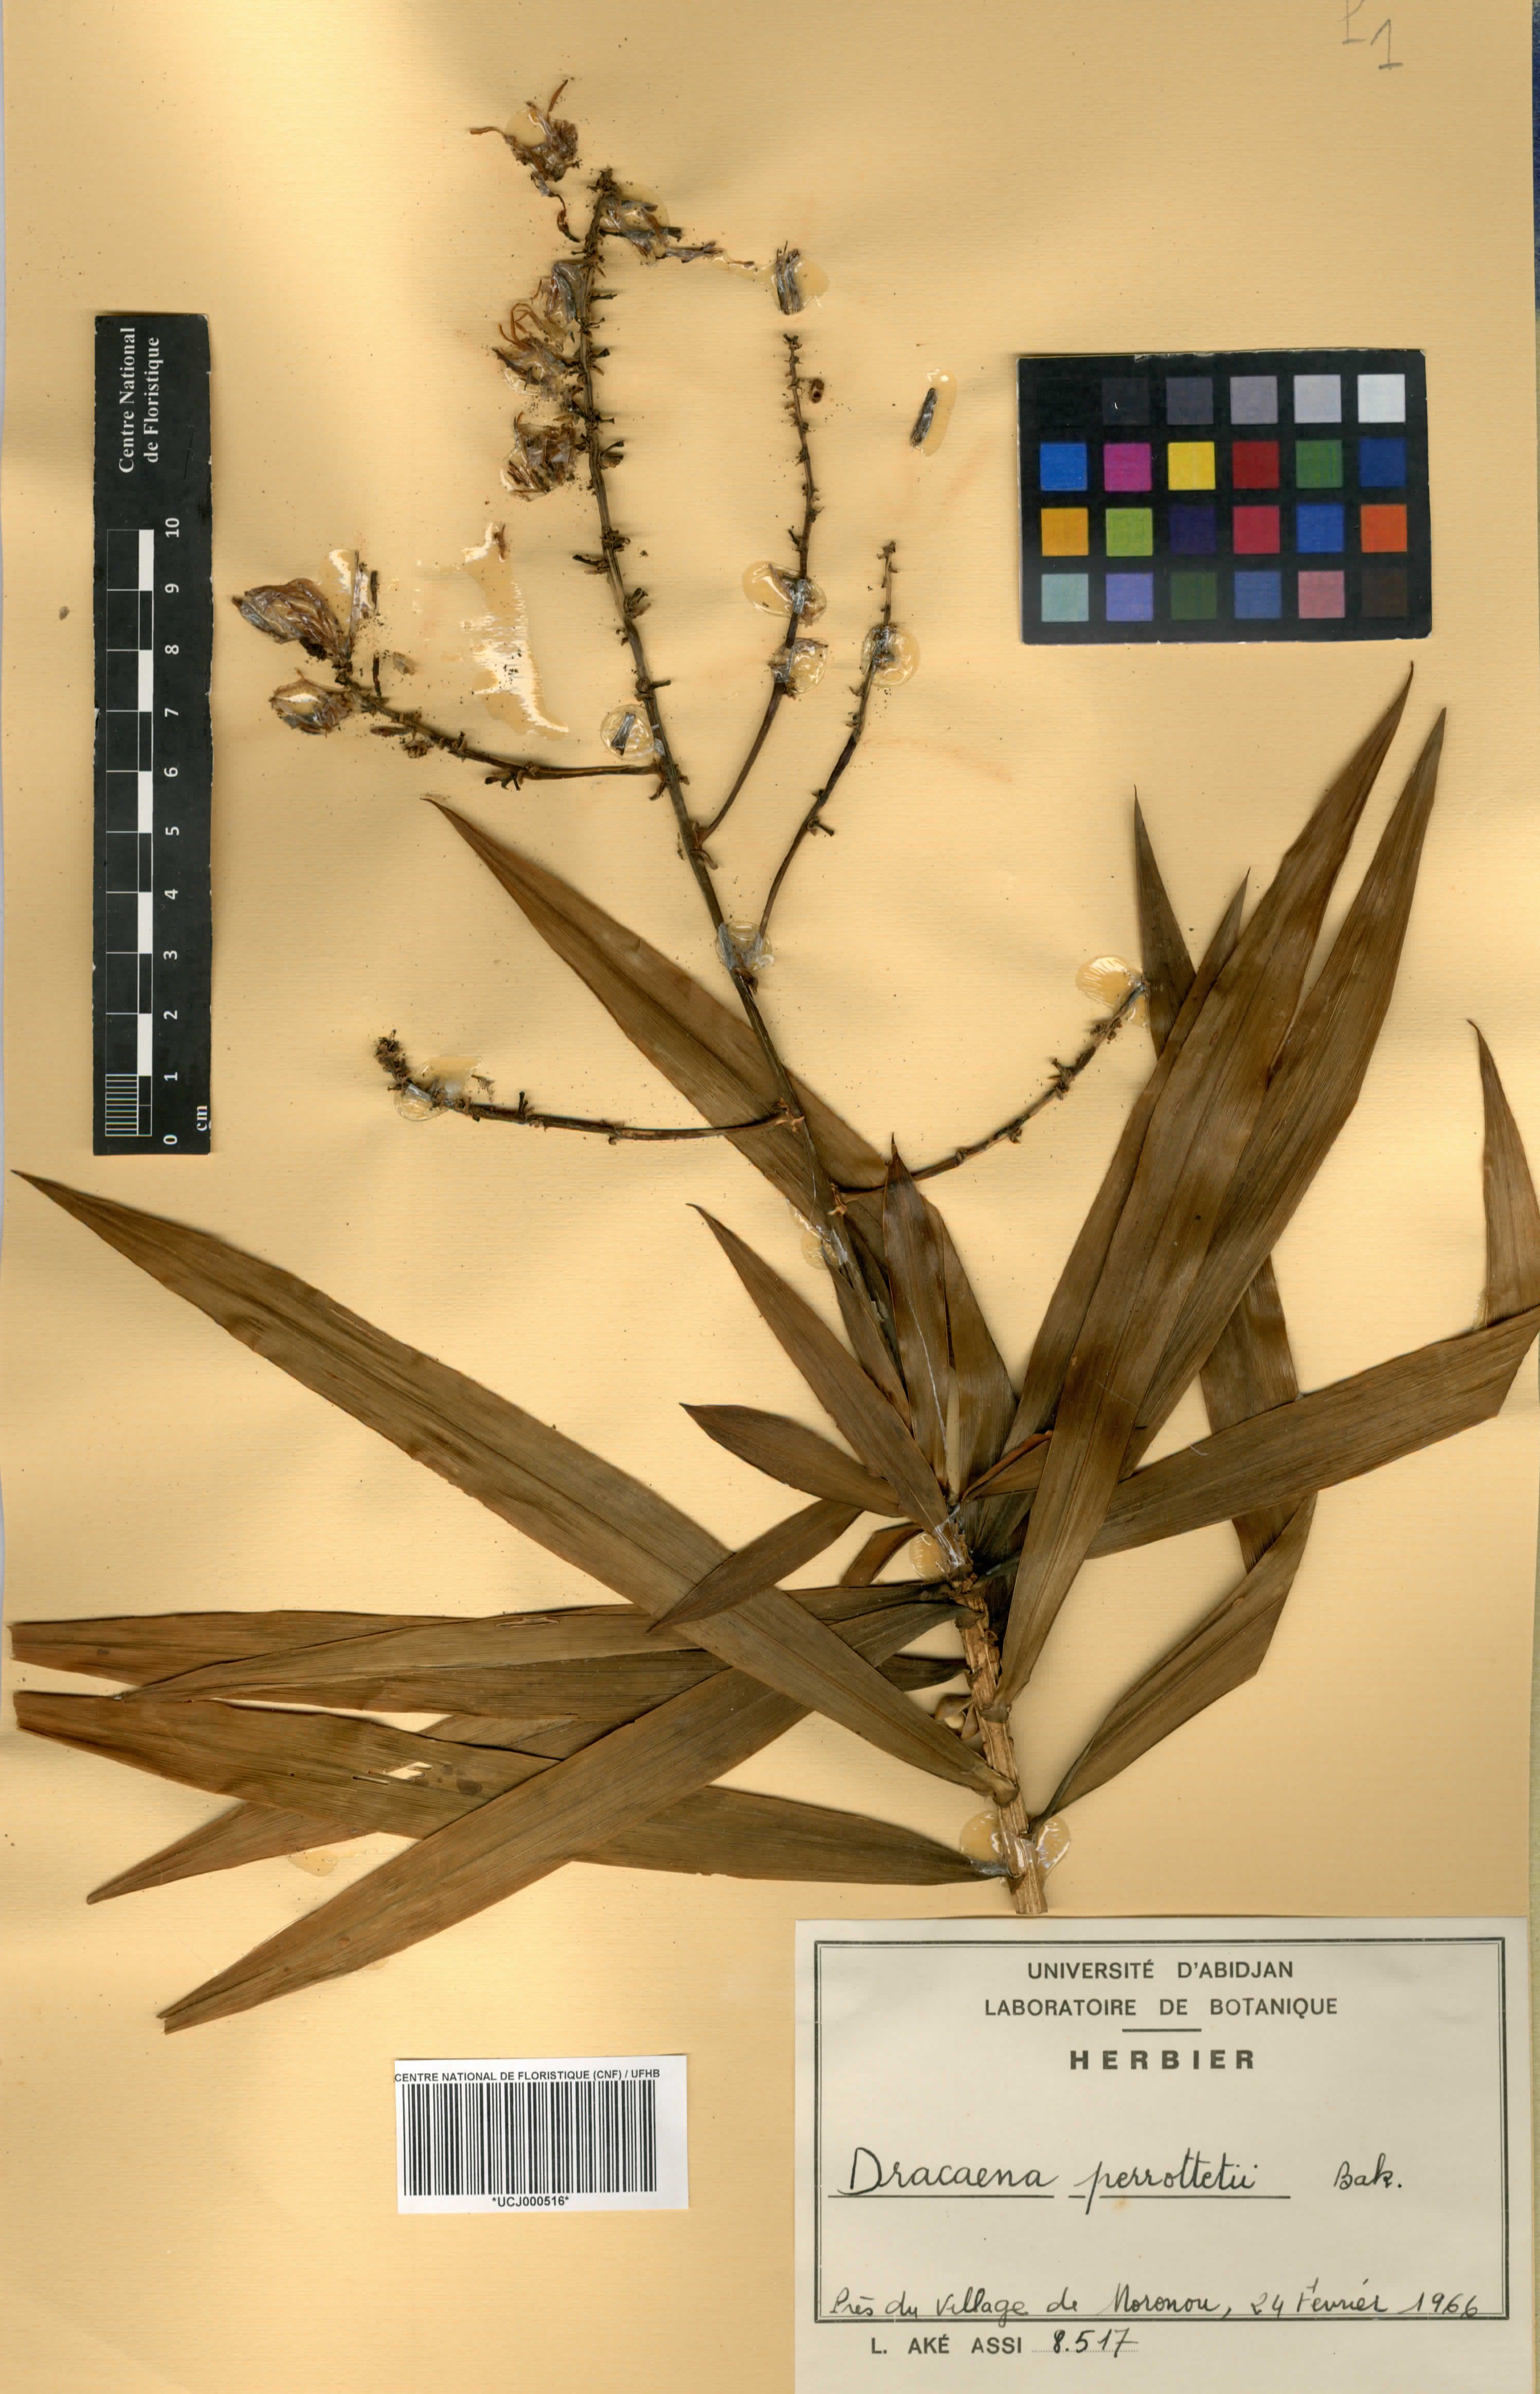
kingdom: Plantae
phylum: Tracheophyta
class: Liliopsida
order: Asparagales
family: Asparagaceae
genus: Dracaena
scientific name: Dracaena perrottetii
